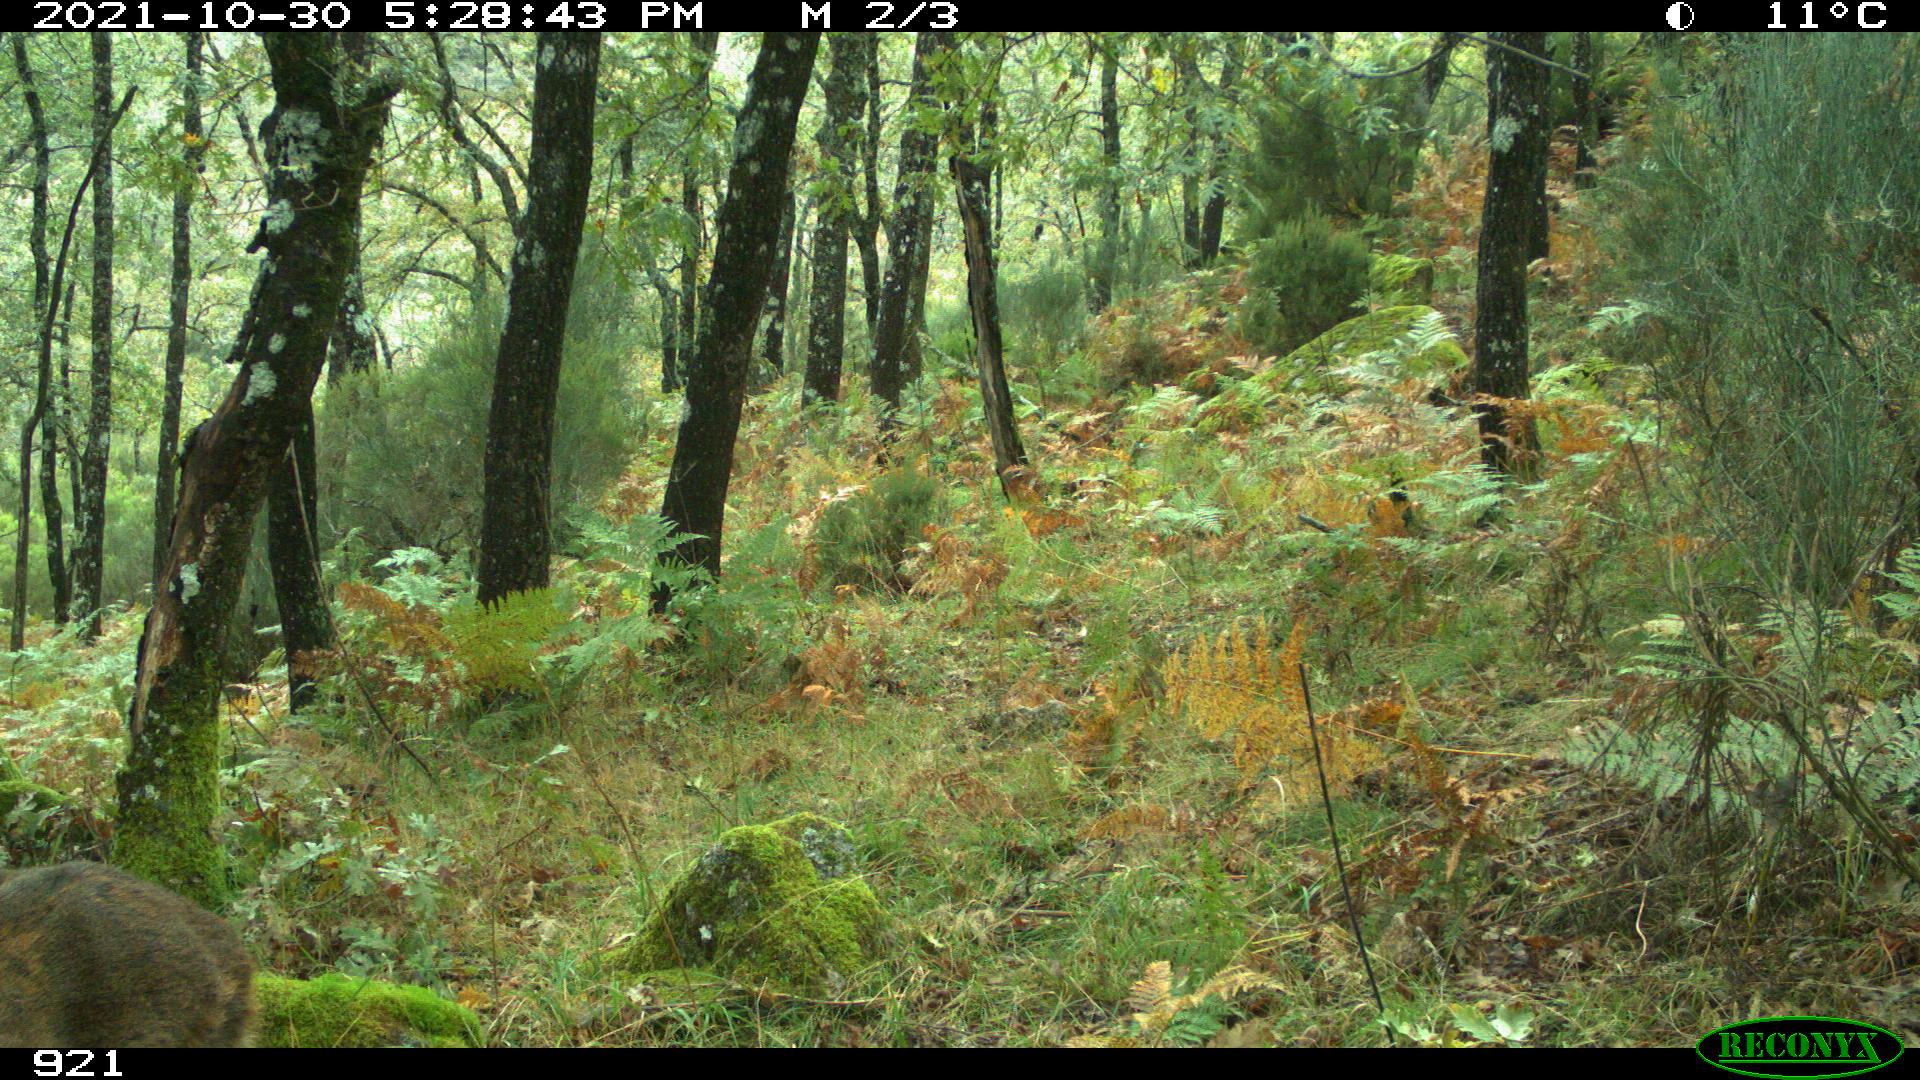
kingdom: Animalia
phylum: Chordata
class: Mammalia
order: Artiodactyla
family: Cervidae
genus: Capreolus
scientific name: Capreolus capreolus
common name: Western roe deer
